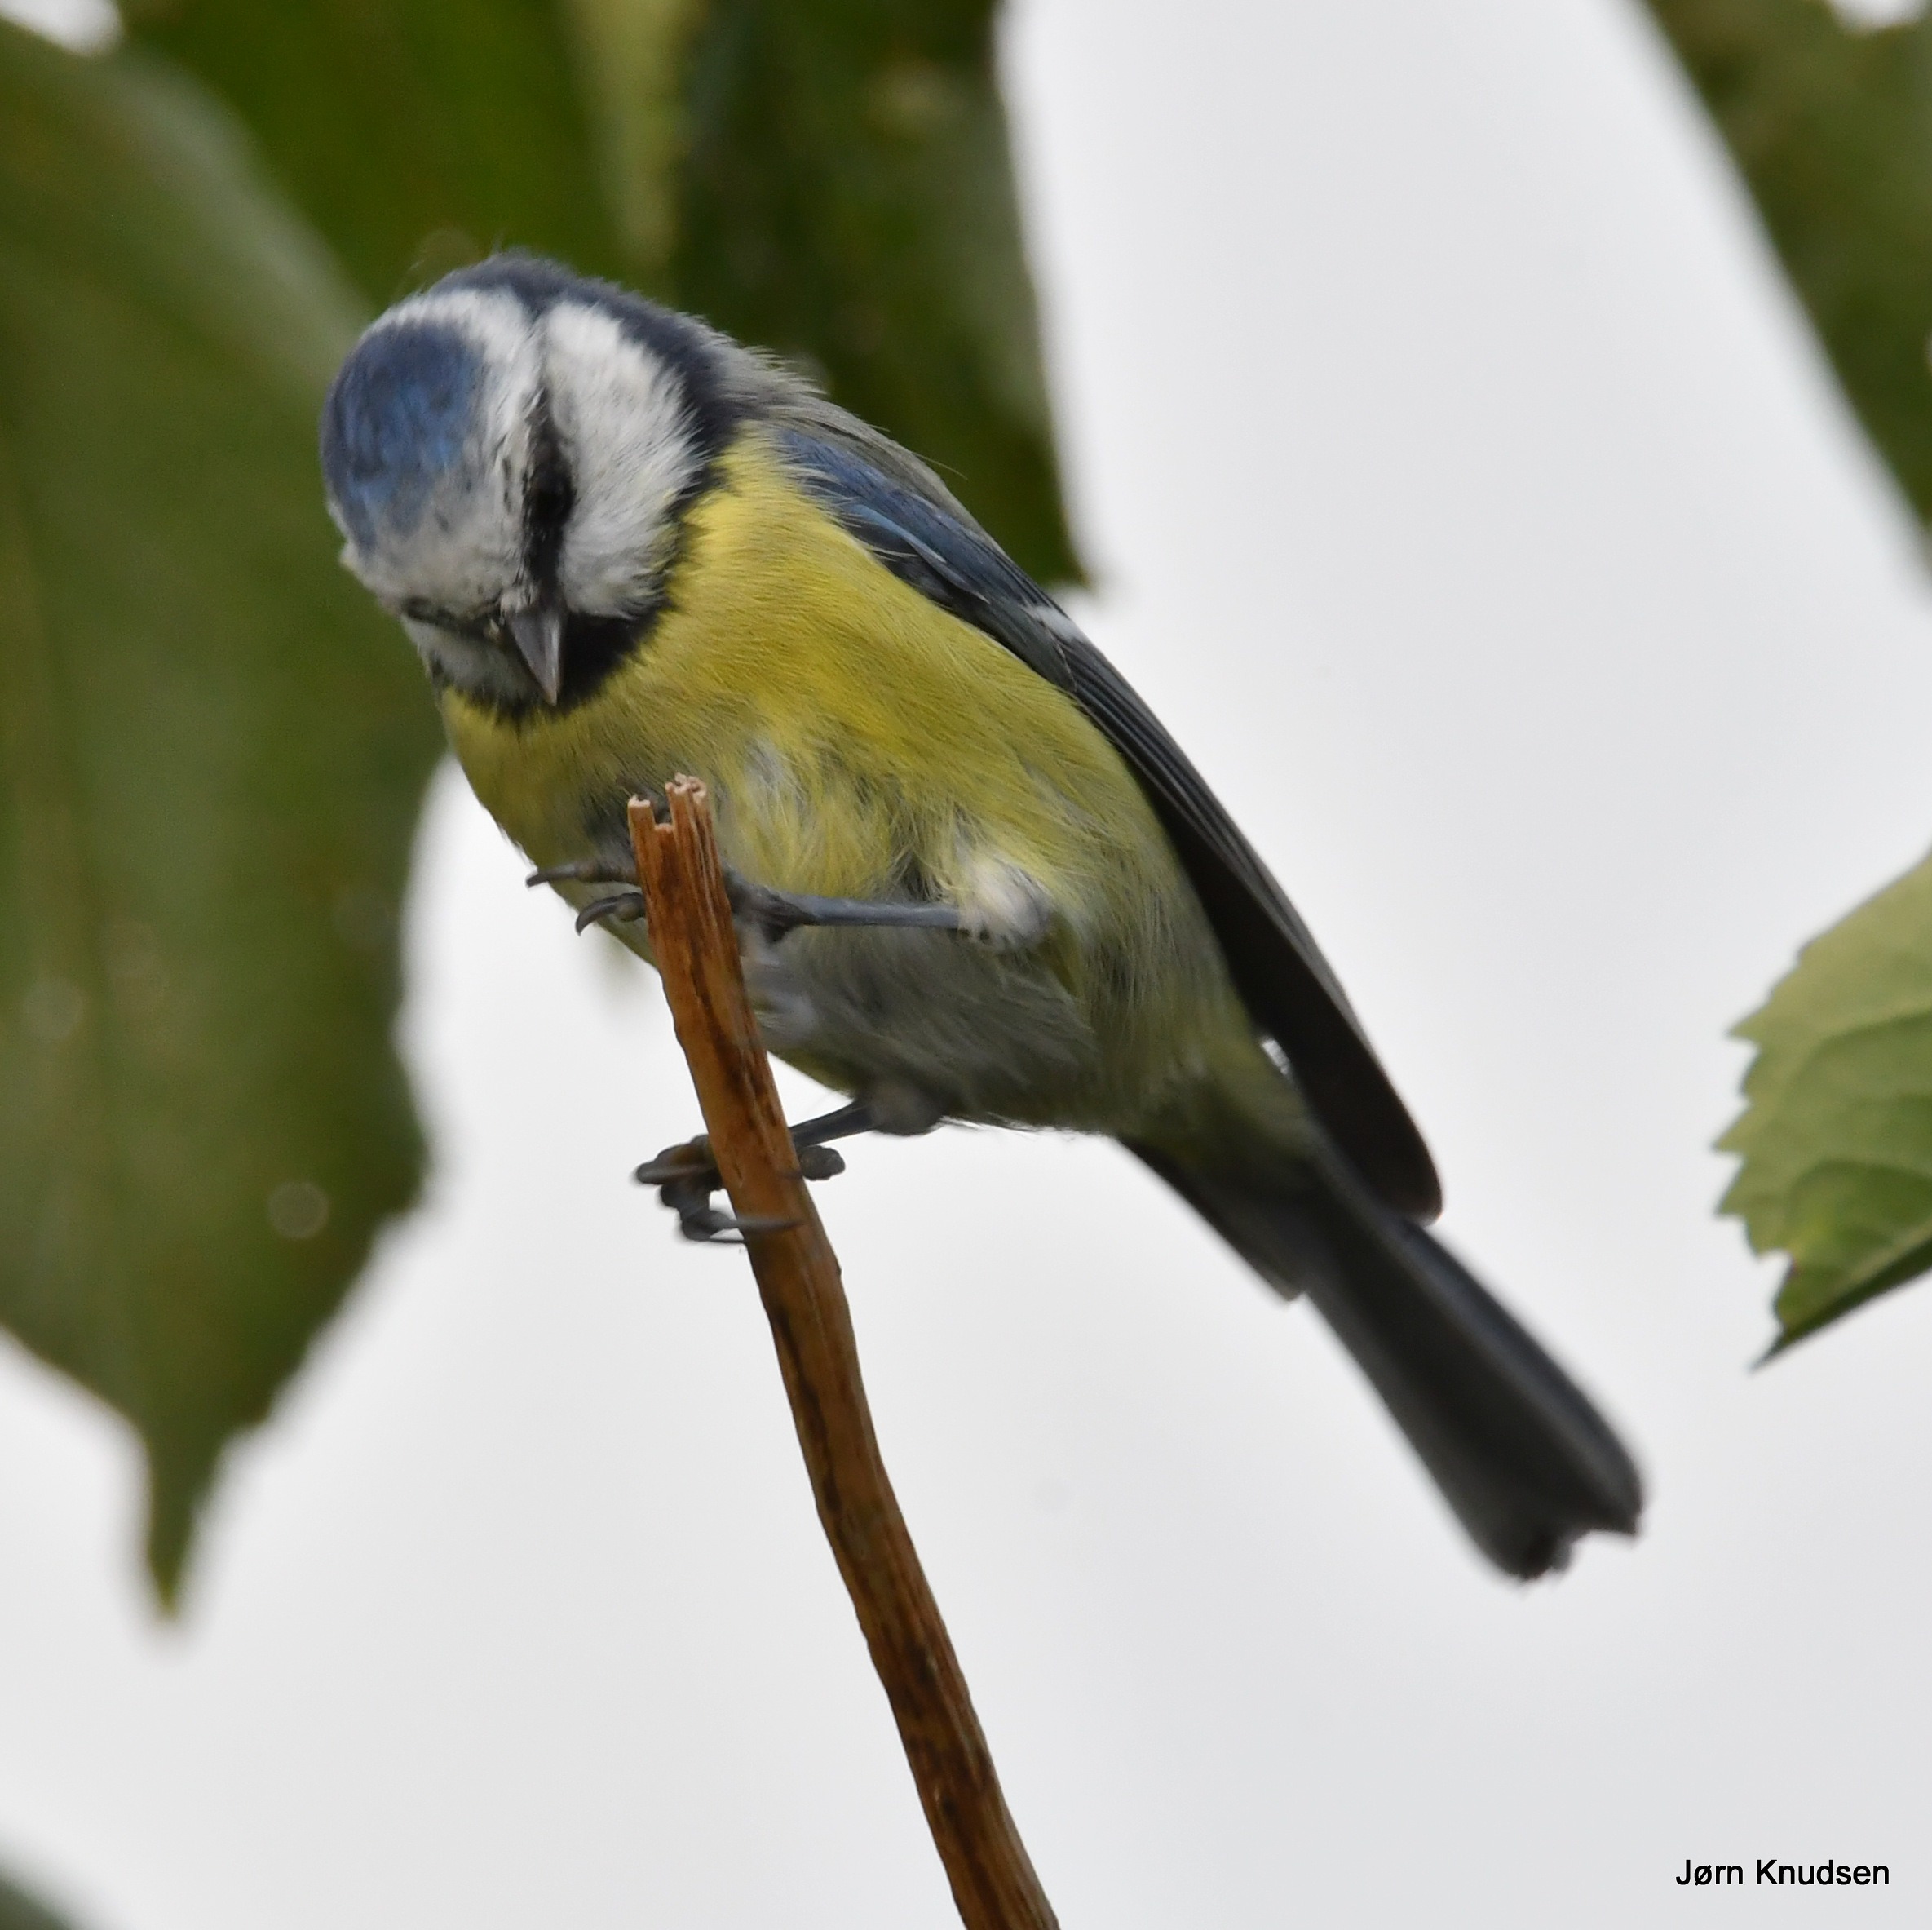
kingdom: Animalia
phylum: Chordata
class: Aves
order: Passeriformes
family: Paridae
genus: Cyanistes
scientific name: Cyanistes caeruleus
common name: Blåmejse
